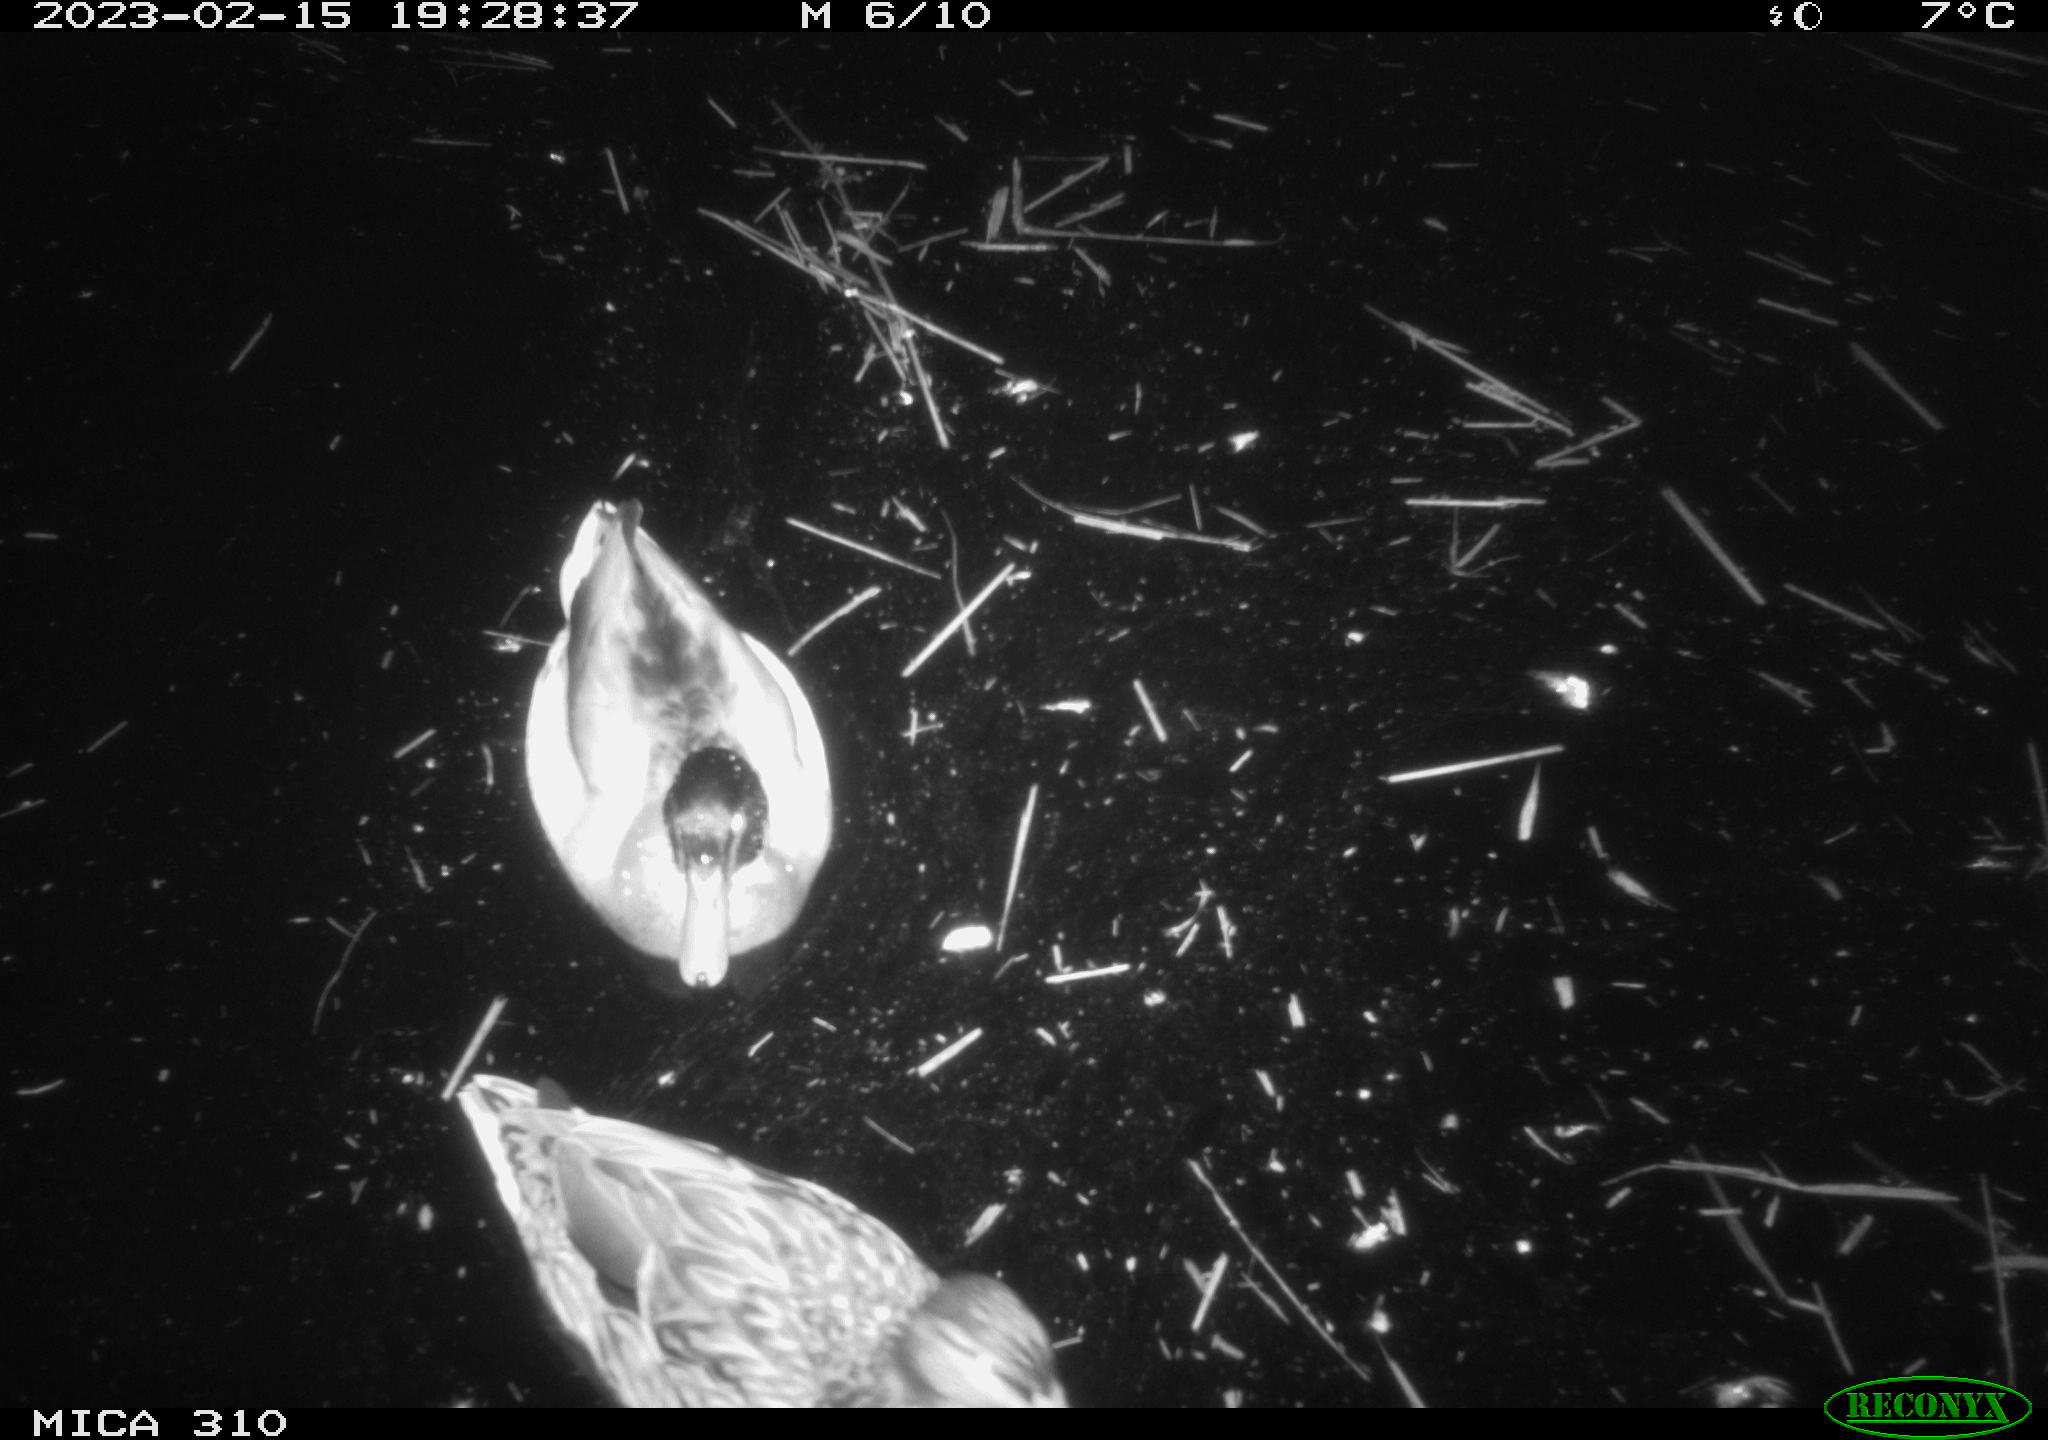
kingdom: Animalia
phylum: Chordata
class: Aves
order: Anseriformes
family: Anatidae
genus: Anas
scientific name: Anas
